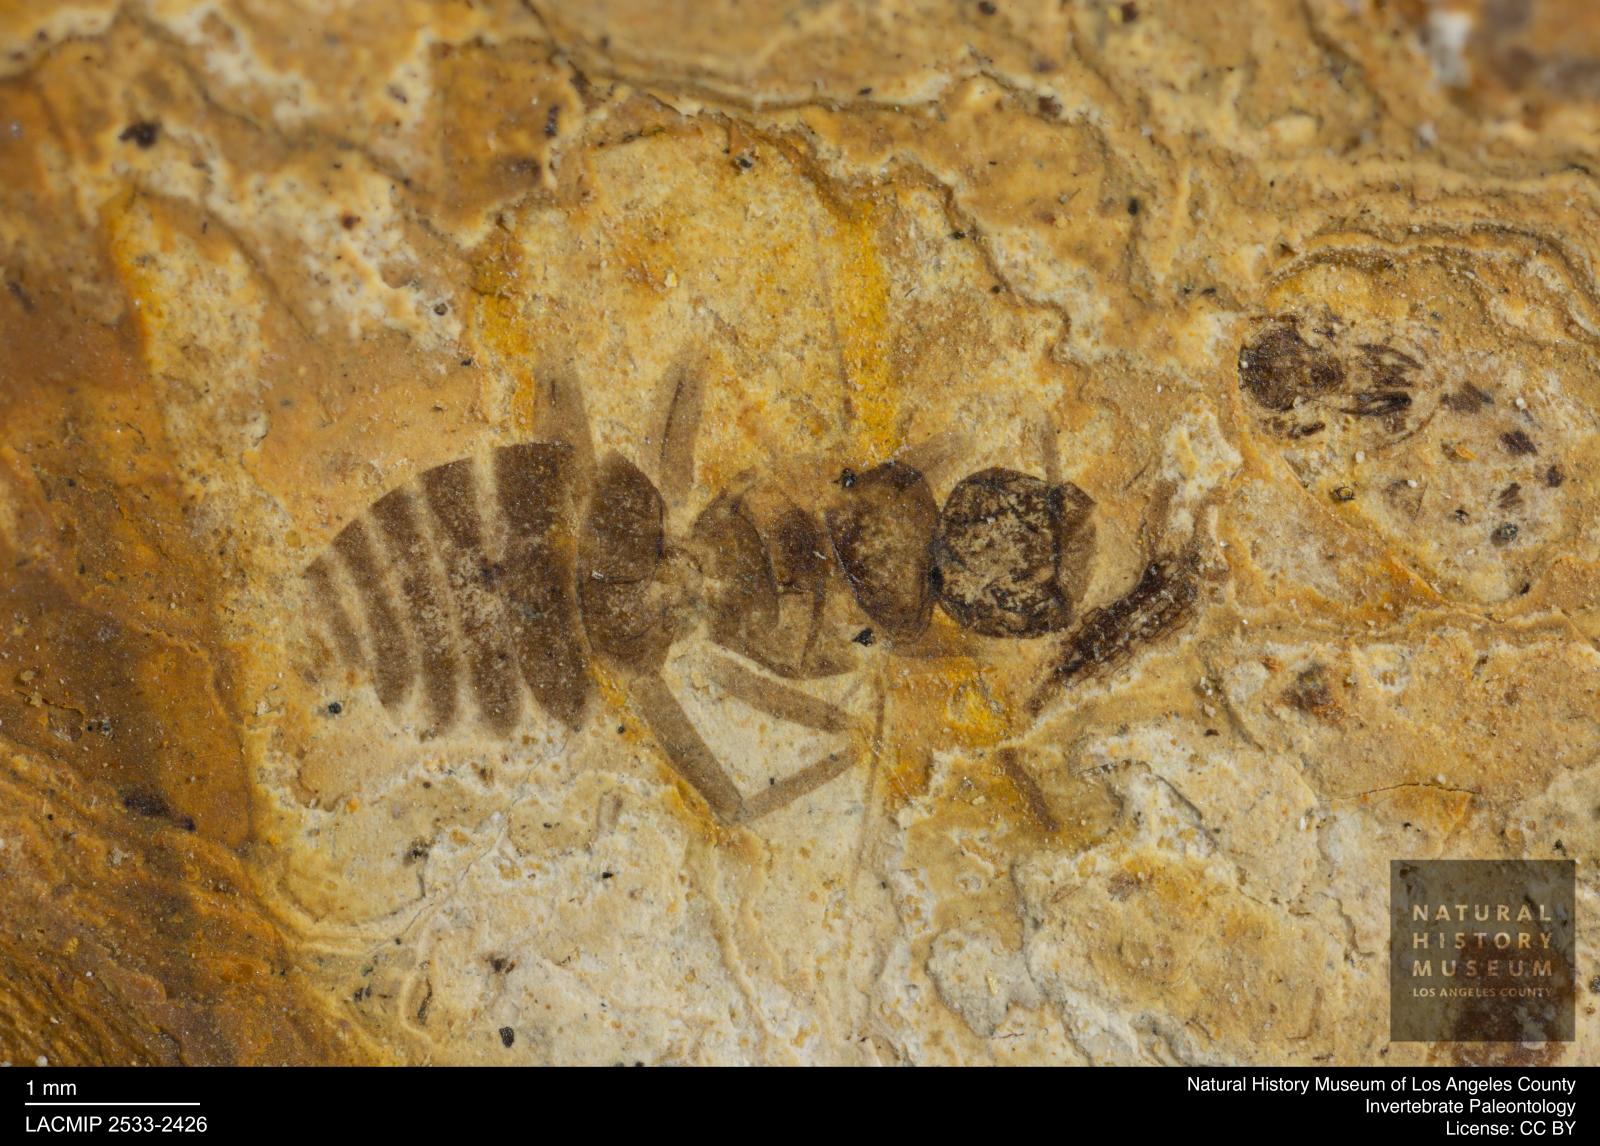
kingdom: Animalia
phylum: Arthropoda
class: Insecta
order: Hymenoptera
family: Formicidae
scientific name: Formicidae
